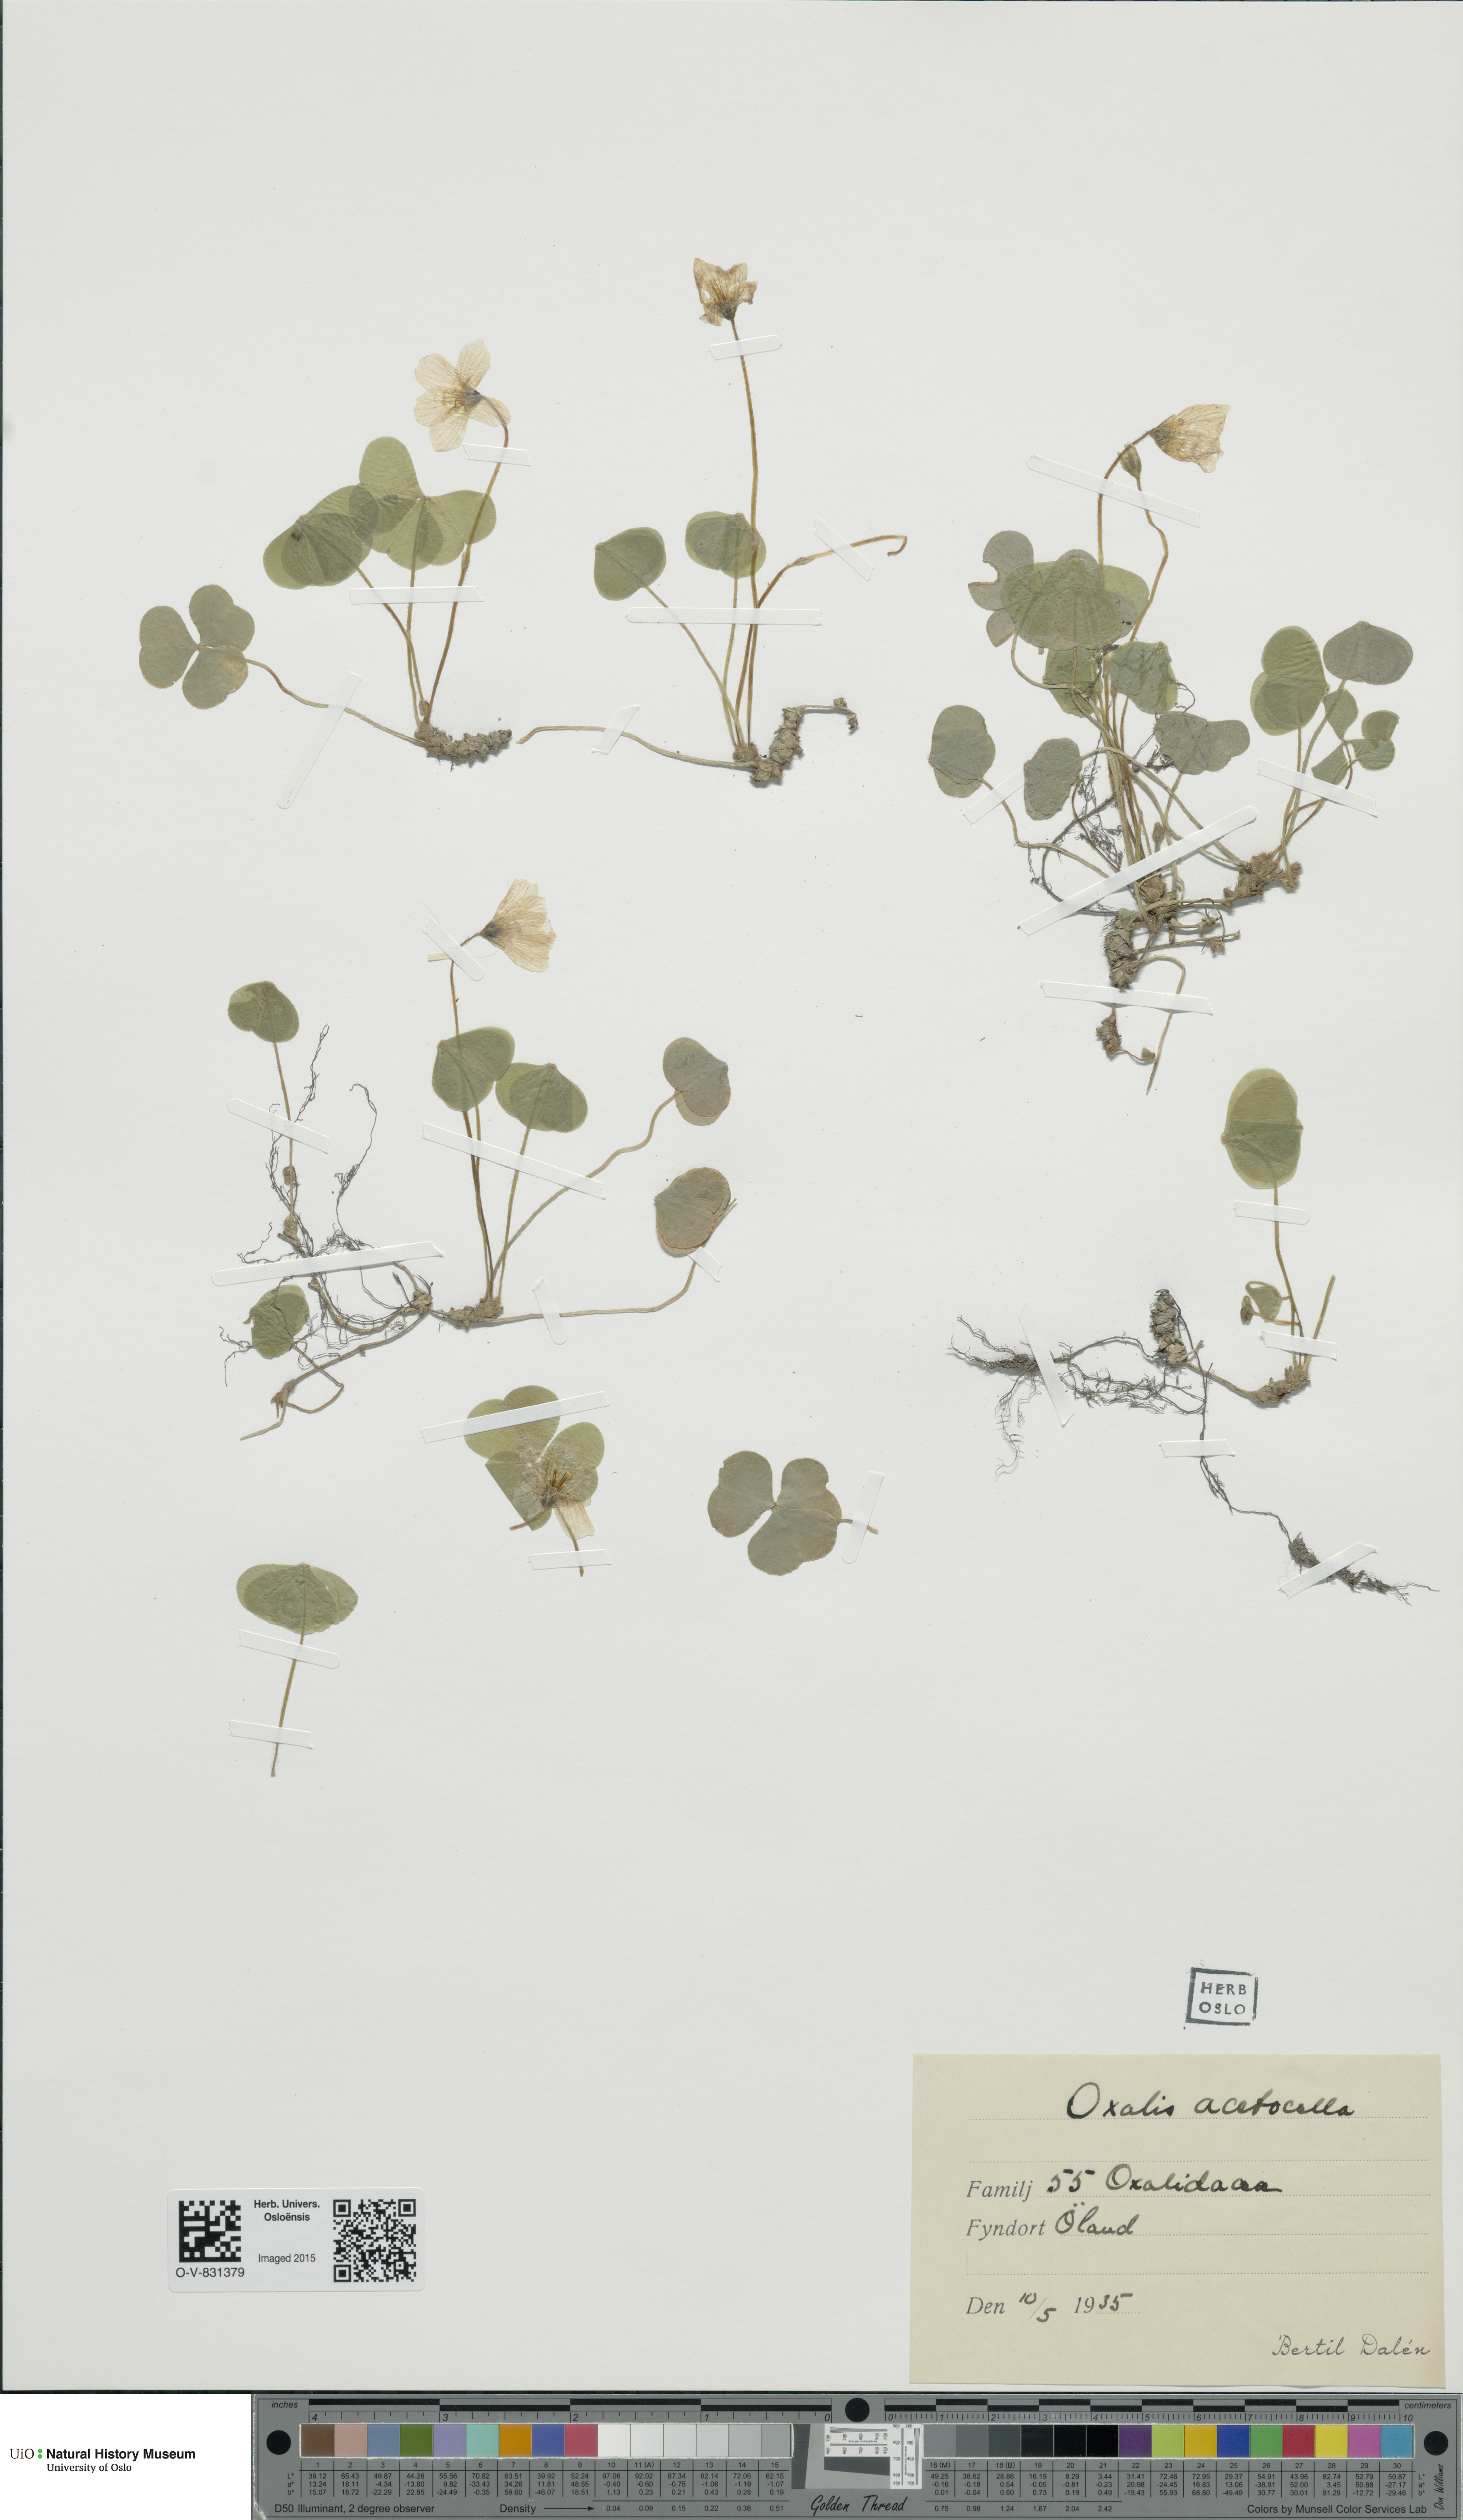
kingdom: Plantae
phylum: Tracheophyta
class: Magnoliopsida
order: Oxalidales
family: Oxalidaceae
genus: Oxalis
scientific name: Oxalis acetosella
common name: Wood-sorrel
